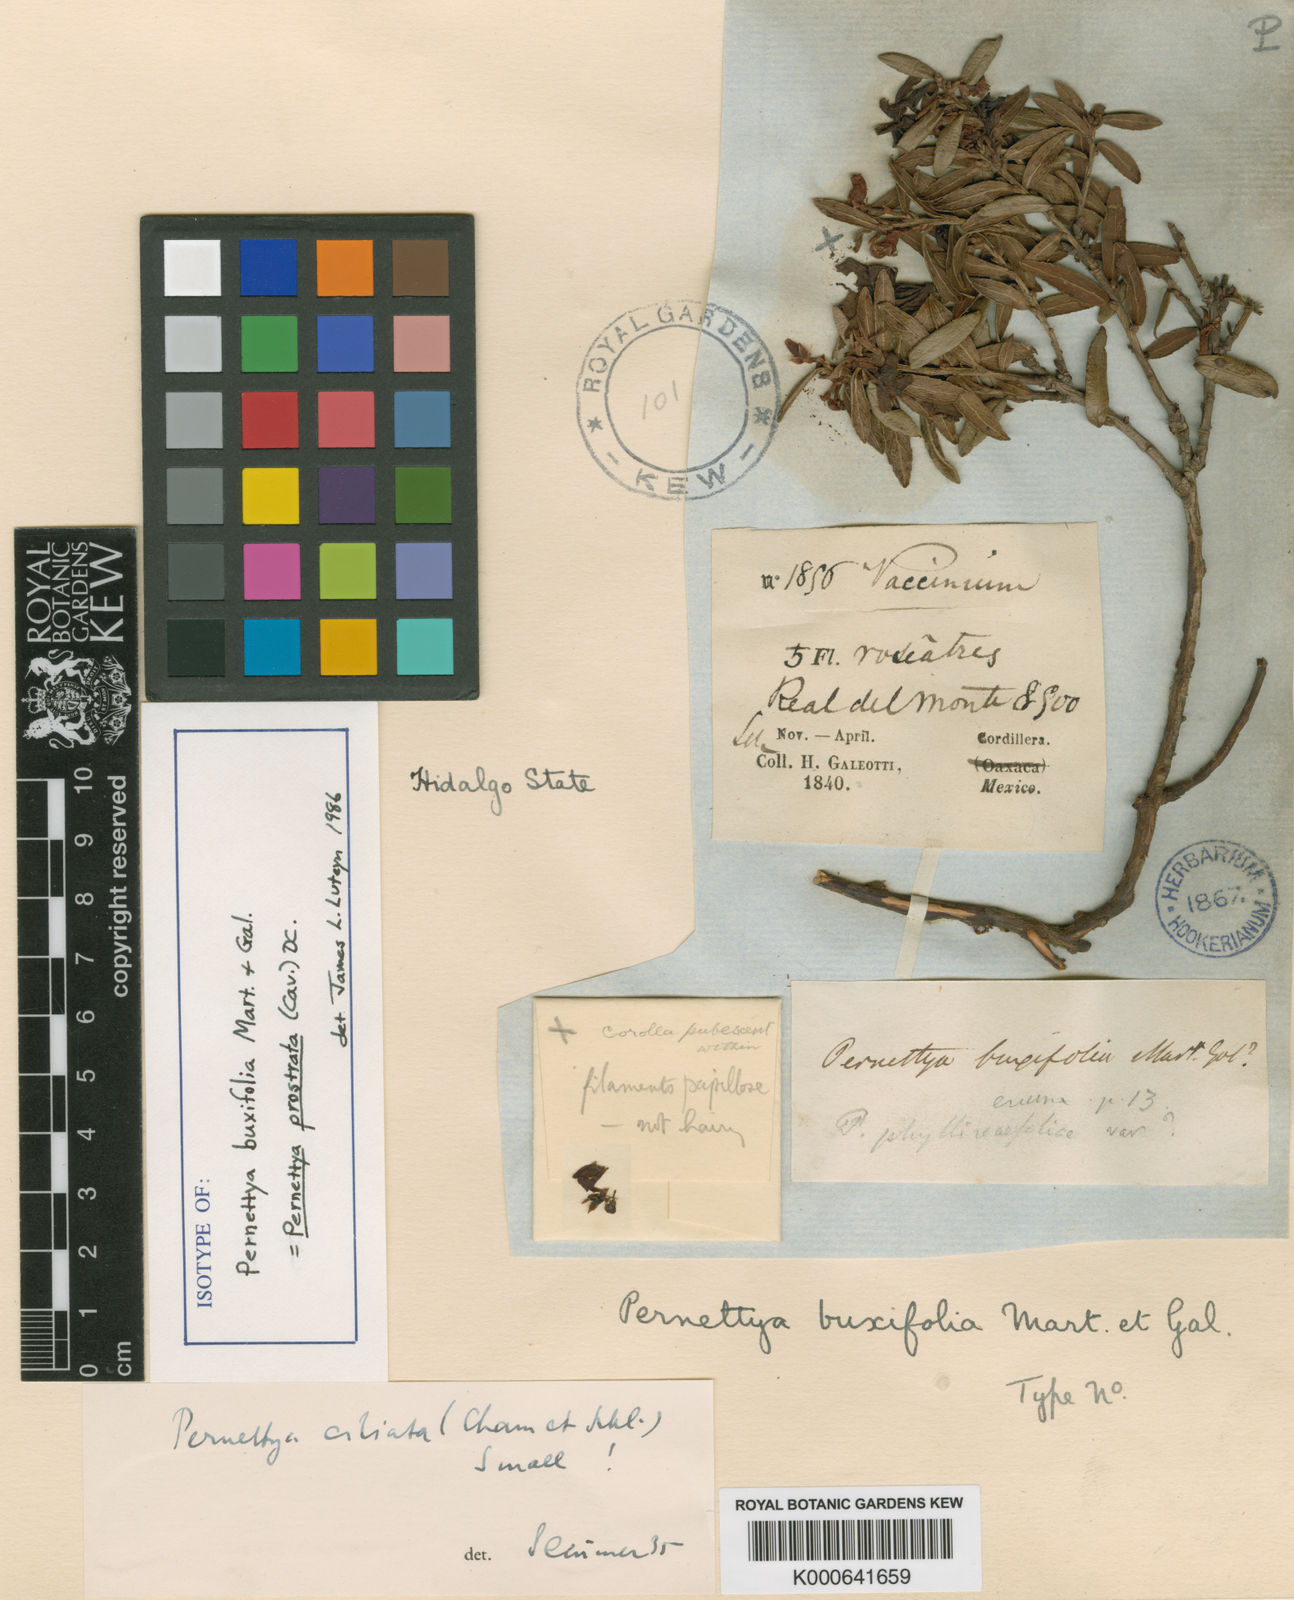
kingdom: Plantae
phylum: Tracheophyta
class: Magnoliopsida
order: Ericales
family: Ericaceae
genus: Gaultheria
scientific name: Gaultheria myrsinoides
